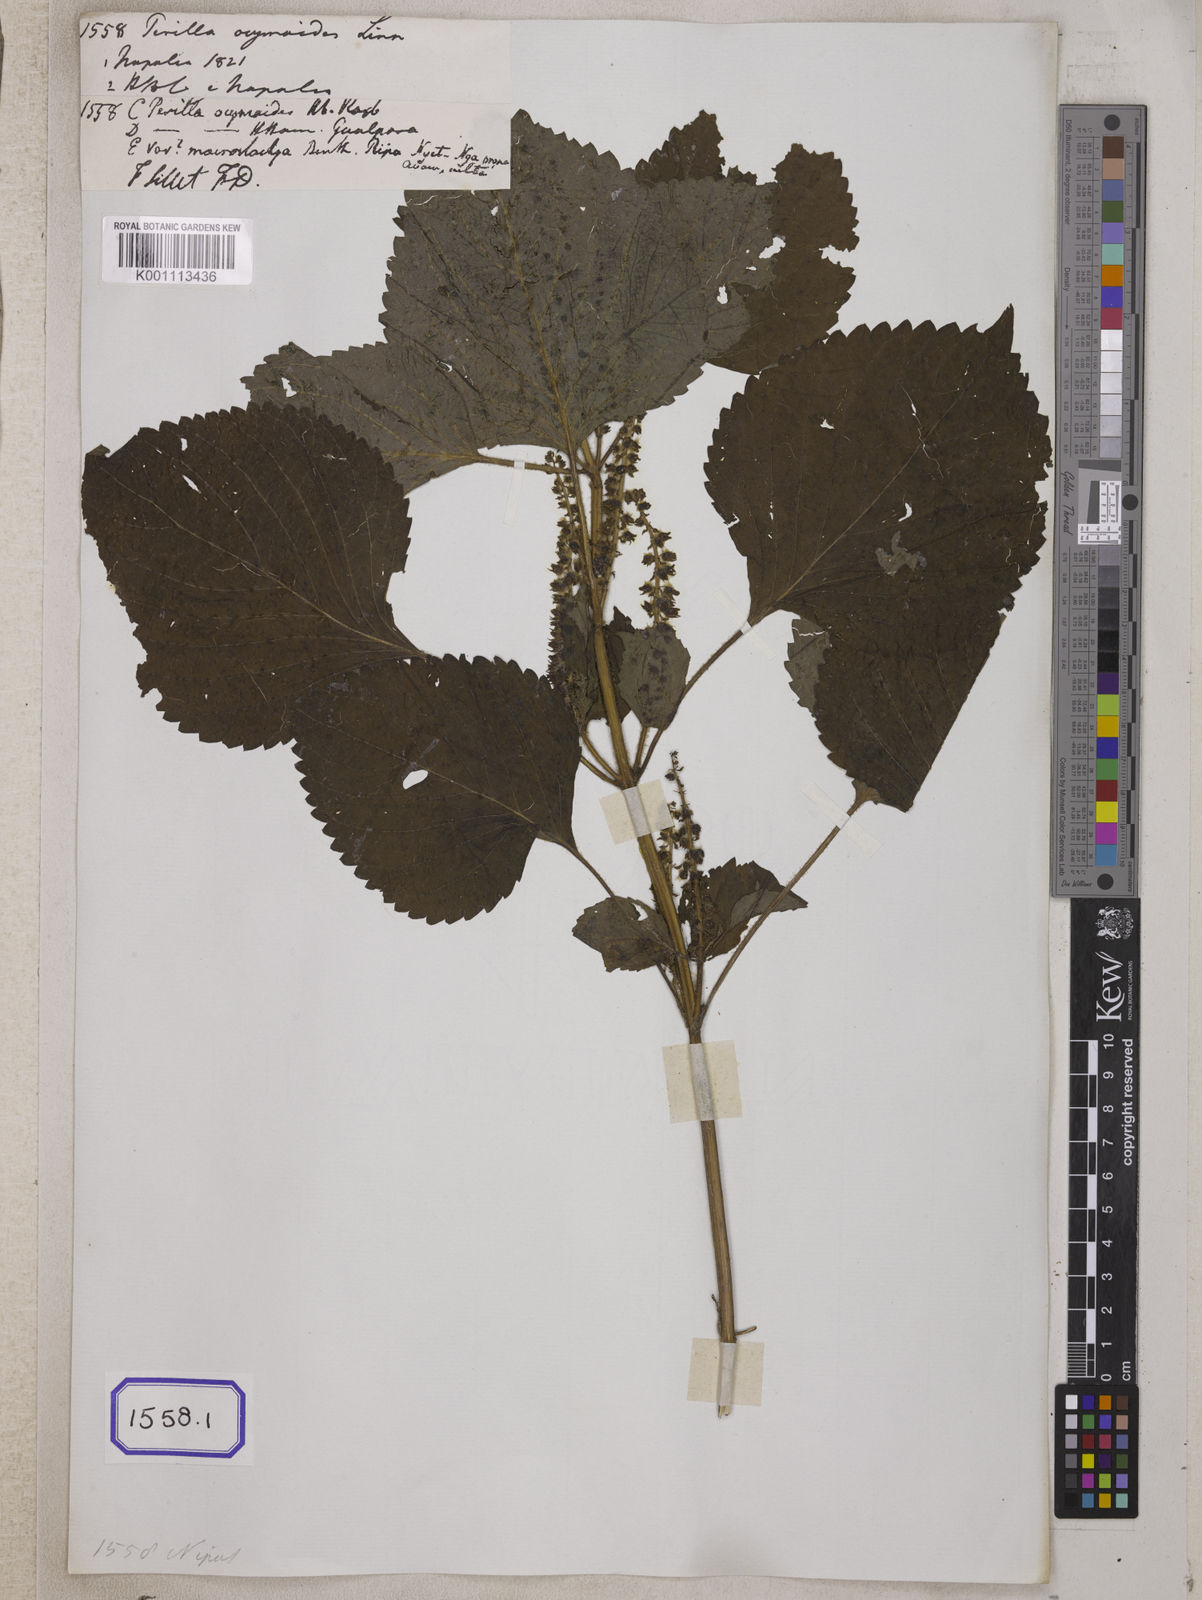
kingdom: Plantae
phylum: Tracheophyta
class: Magnoliopsida
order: Lamiales
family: Lamiaceae
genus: Perilla
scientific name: Perilla frutescens
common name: Perilla
